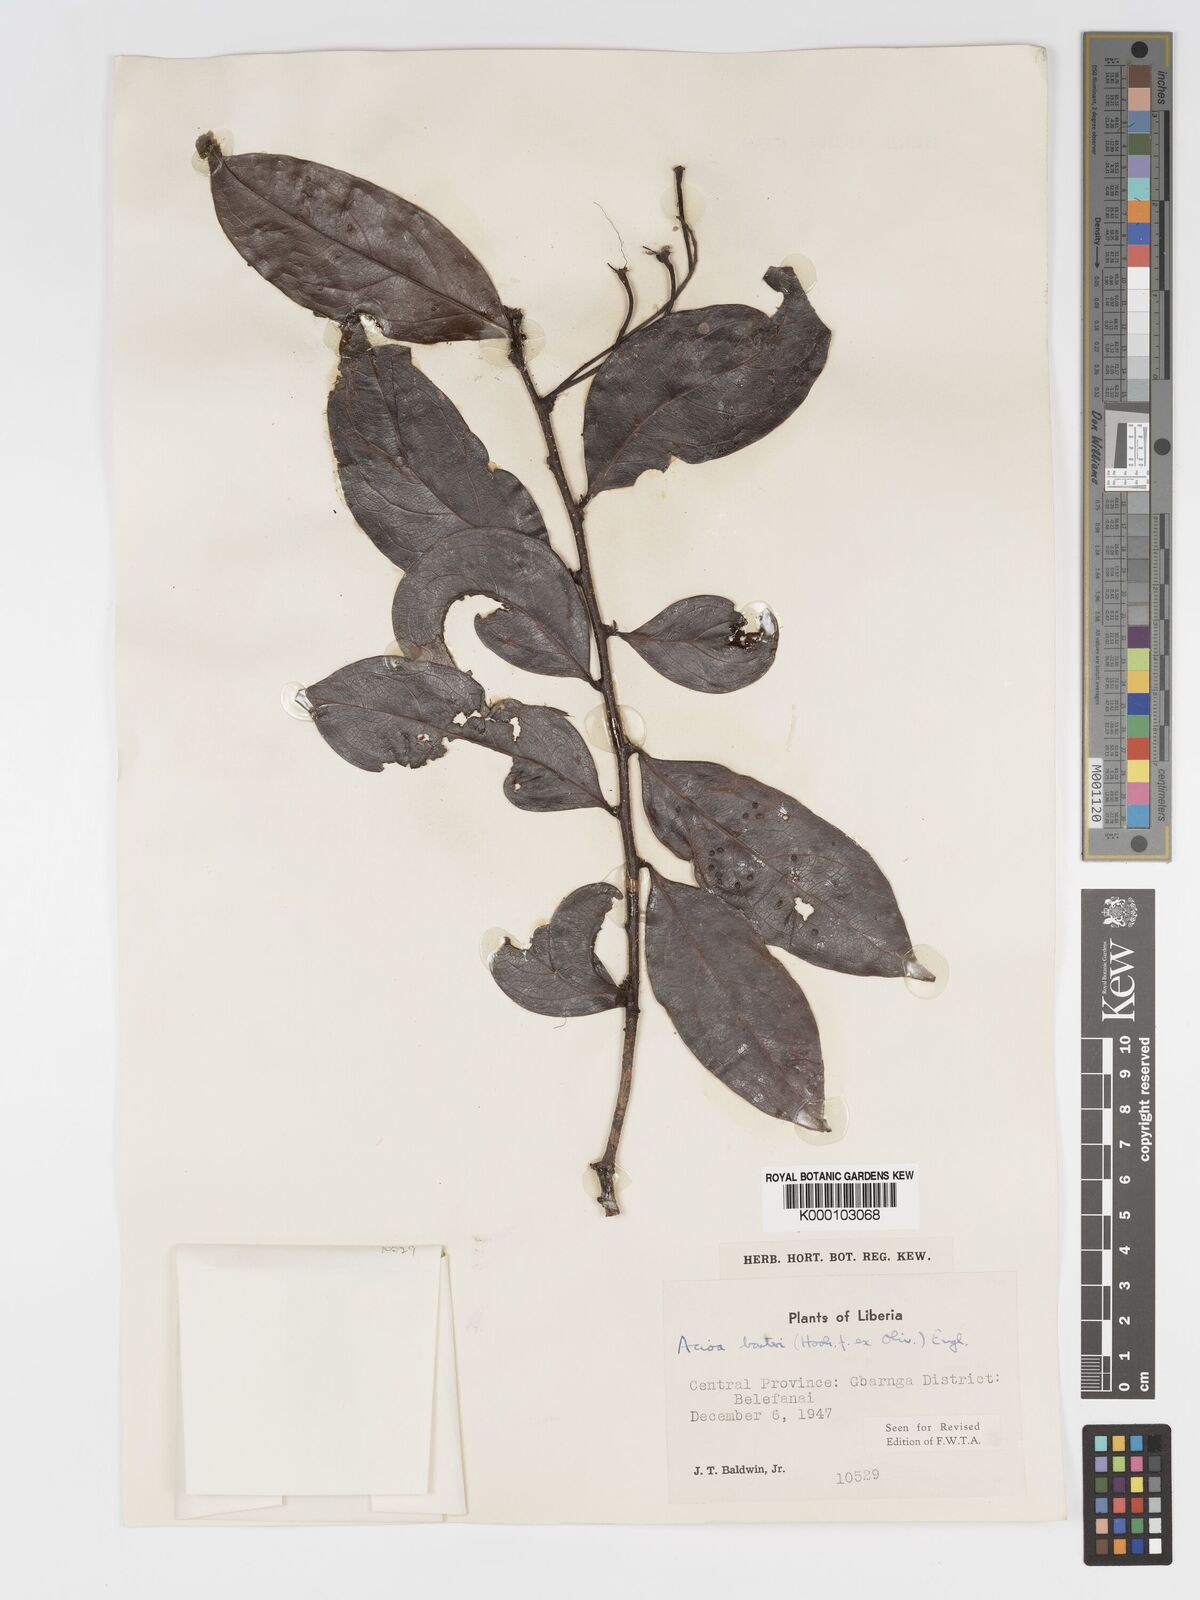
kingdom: Plantae
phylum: Tracheophyta
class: Magnoliopsida
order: Malpighiales
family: Chrysobalanaceae
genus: Dactyladenia
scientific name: Dactyladenia barteri
